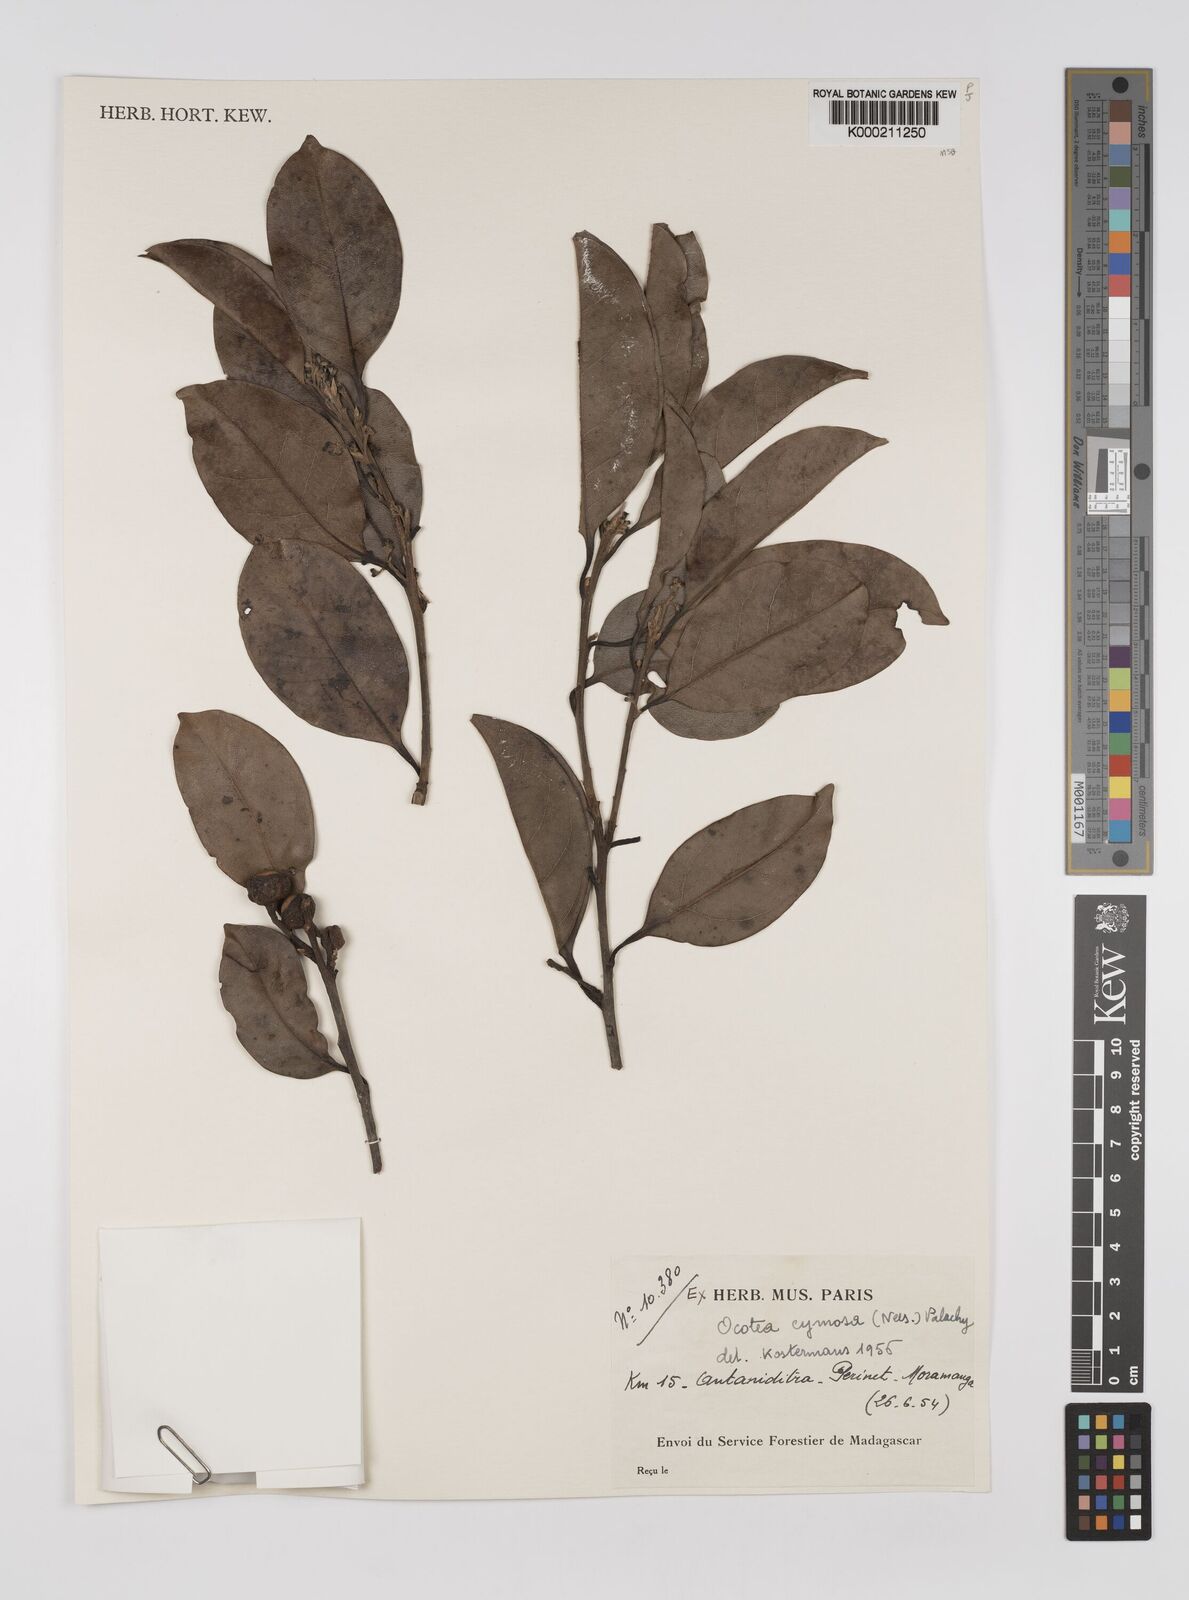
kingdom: Plantae
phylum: Tracheophyta
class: Magnoliopsida
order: Laurales
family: Lauraceae
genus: Mespilodaphne
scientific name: Mespilodaphne cymosa
